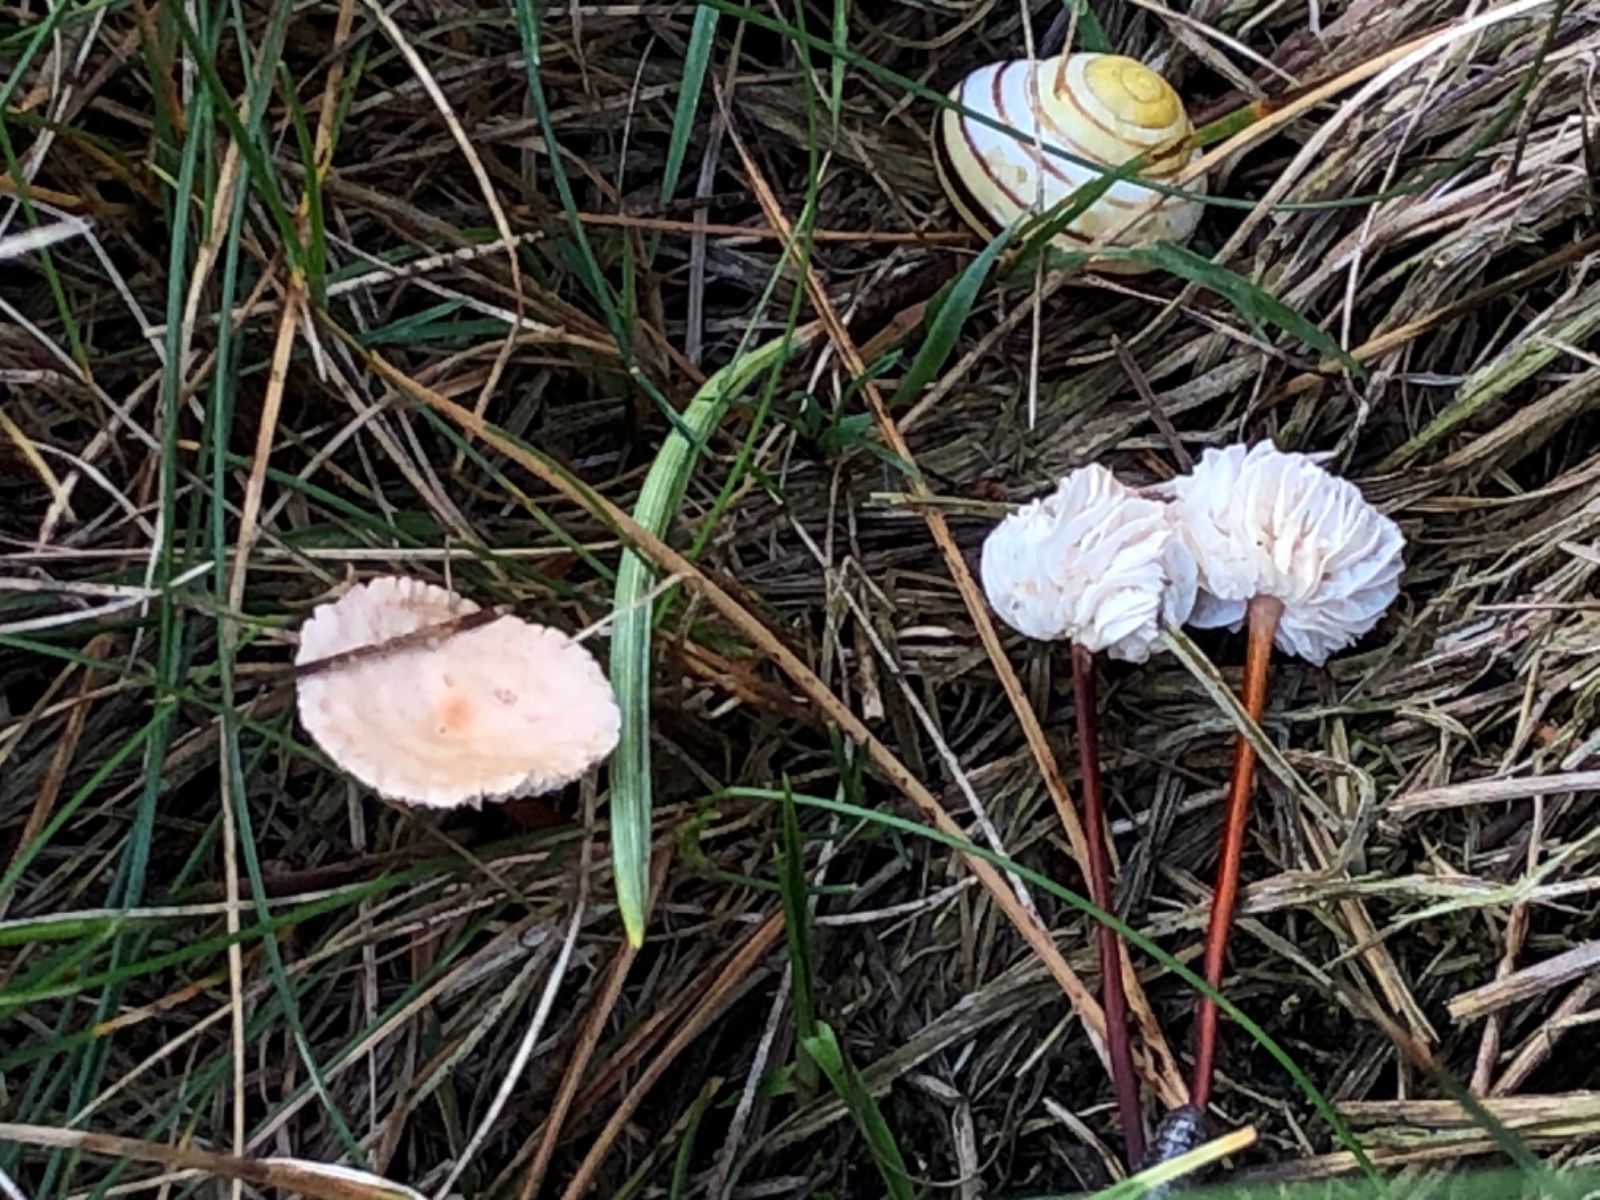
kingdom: Fungi
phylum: Basidiomycota
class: Agaricomycetes
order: Agaricales
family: Omphalotaceae
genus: Mycetinis
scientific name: Mycetinis scorodonius
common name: lille løghat
